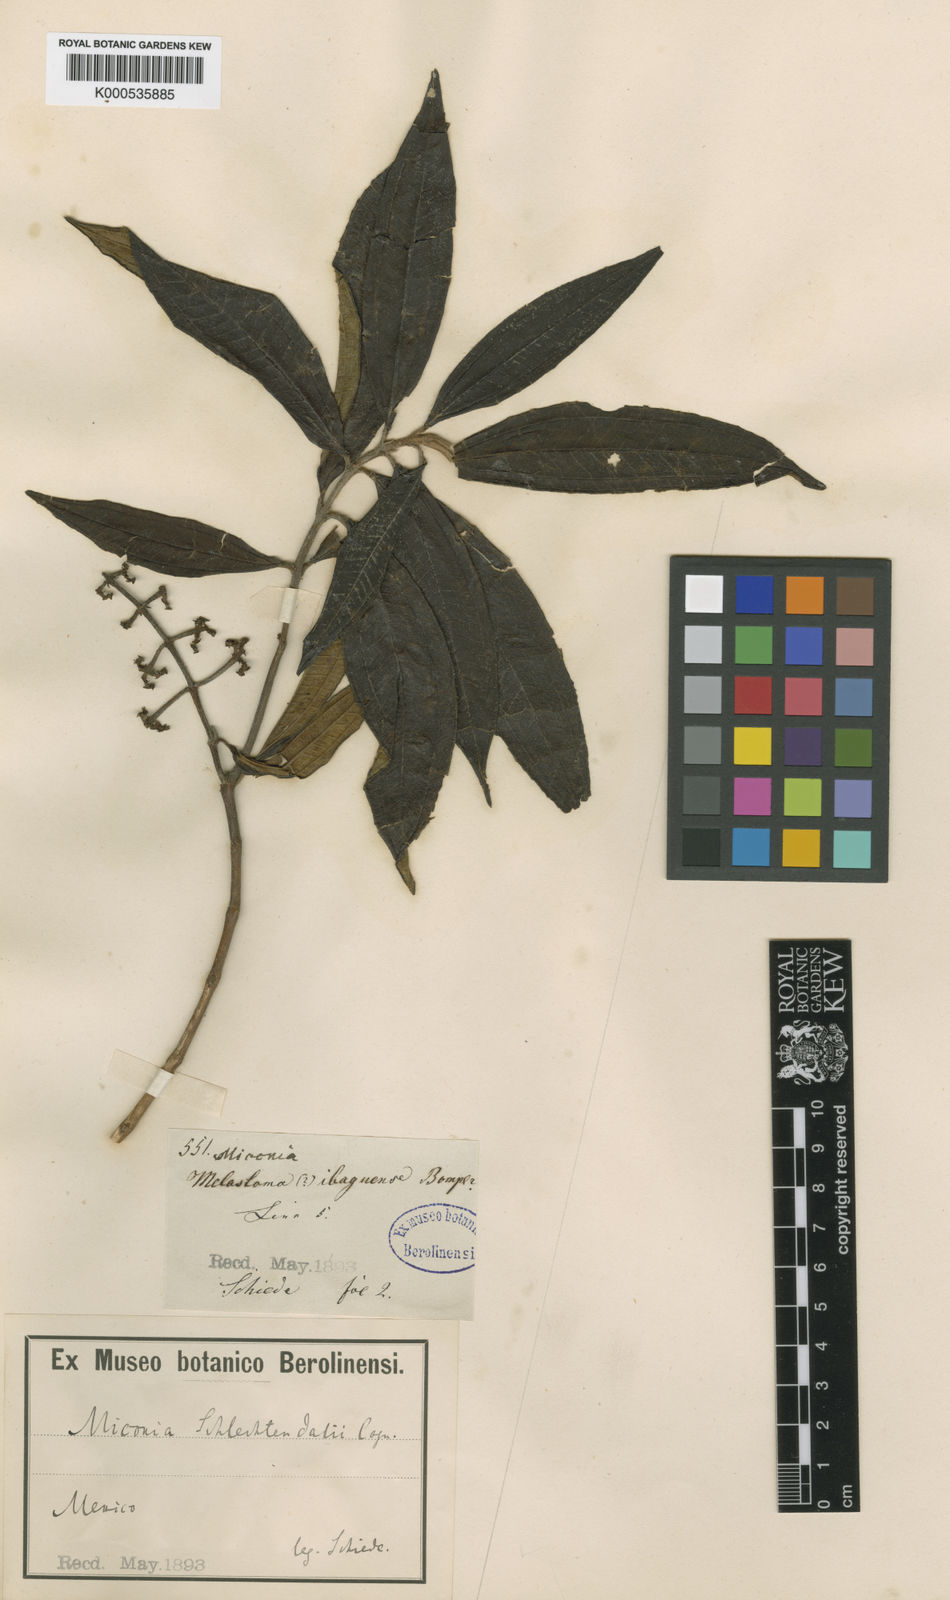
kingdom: Plantae
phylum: Tracheophyta
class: Magnoliopsida
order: Myrtales
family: Melastomataceae
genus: Miconia
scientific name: Miconia schlechtendalii
